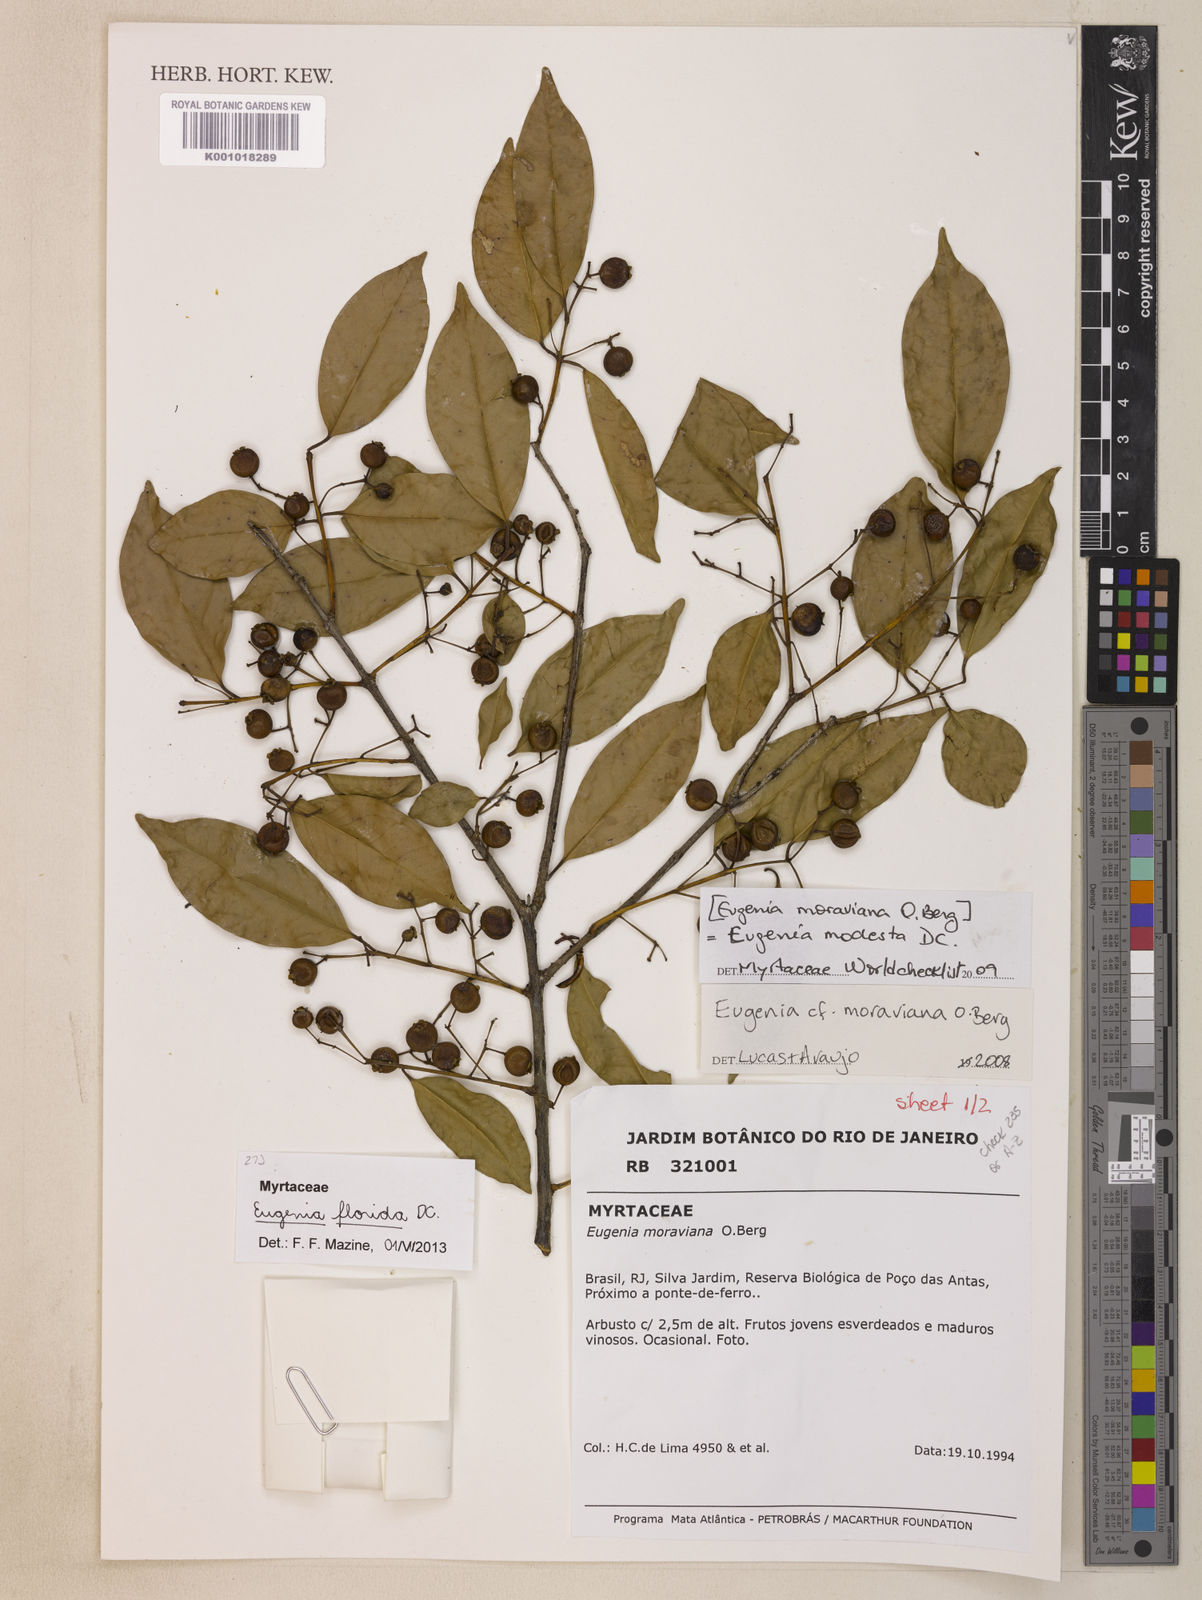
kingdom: Plantae
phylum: Tracheophyta
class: Magnoliopsida
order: Myrtales
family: Myrtaceae
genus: Eugenia
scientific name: Eugenia florida
